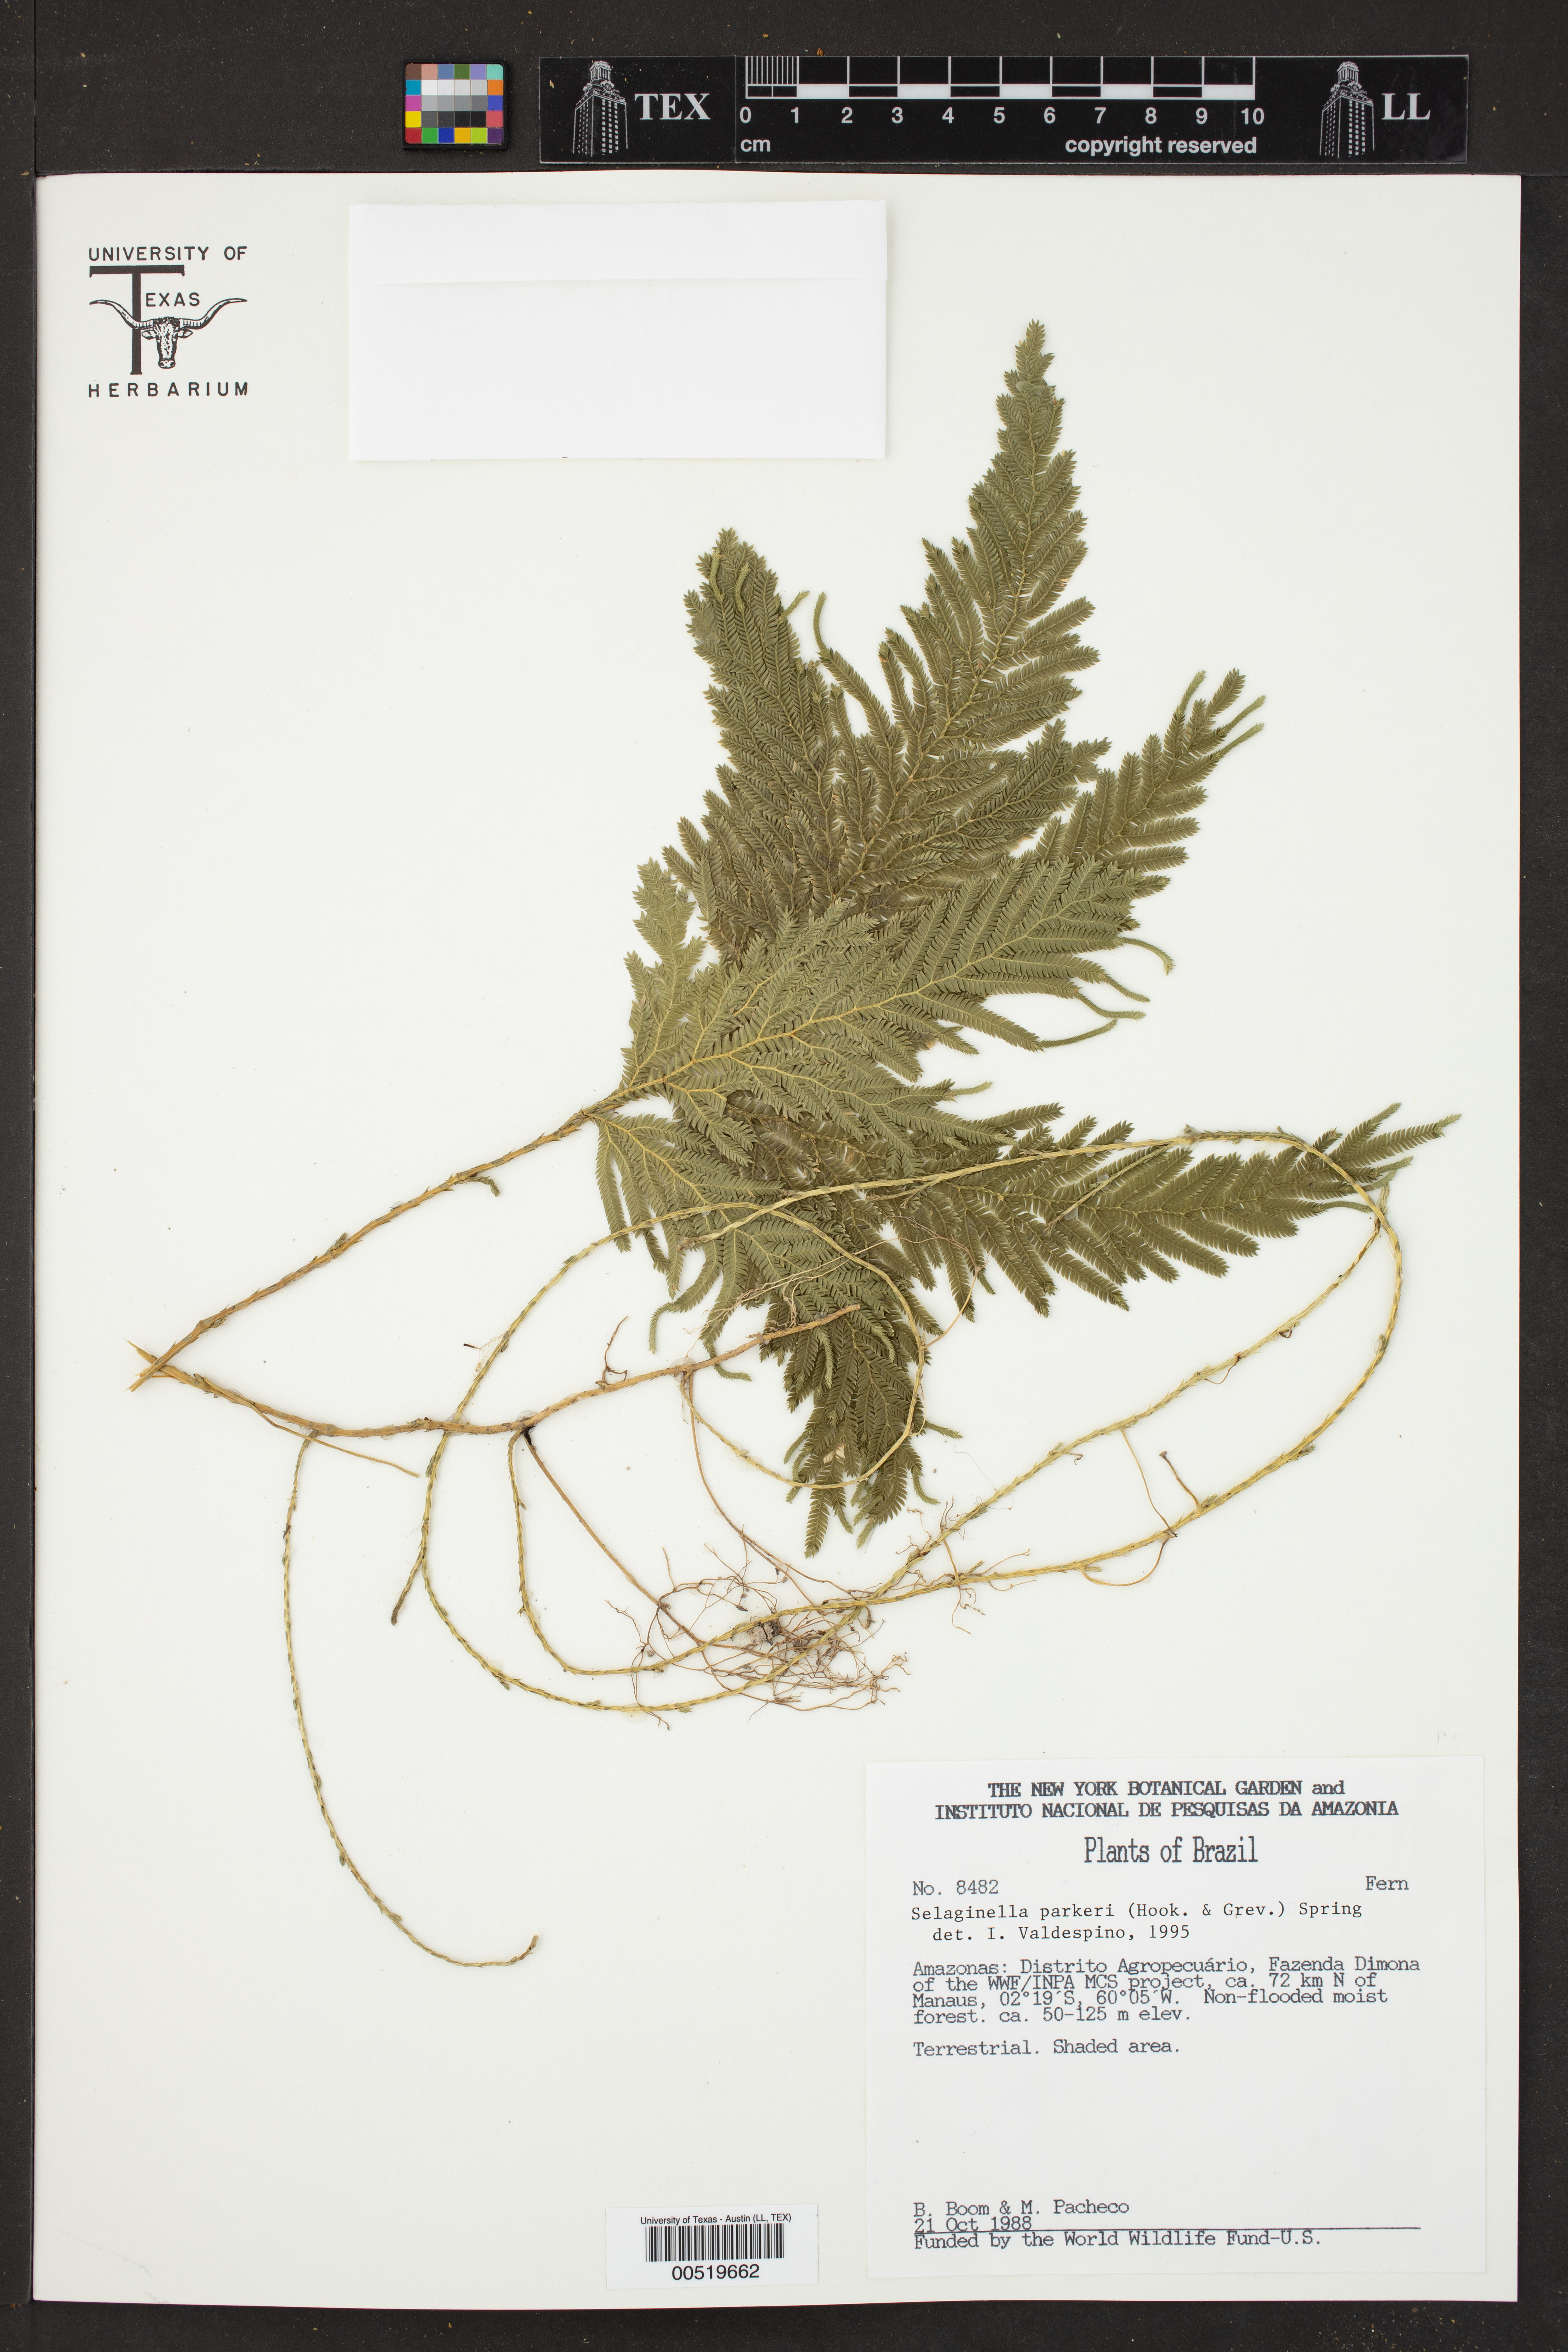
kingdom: Plantae
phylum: Tracheophyta
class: Lycopodiopsida
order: Selaginellales
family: Selaginellaceae
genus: Selaginella
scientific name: Selaginella parkeri
